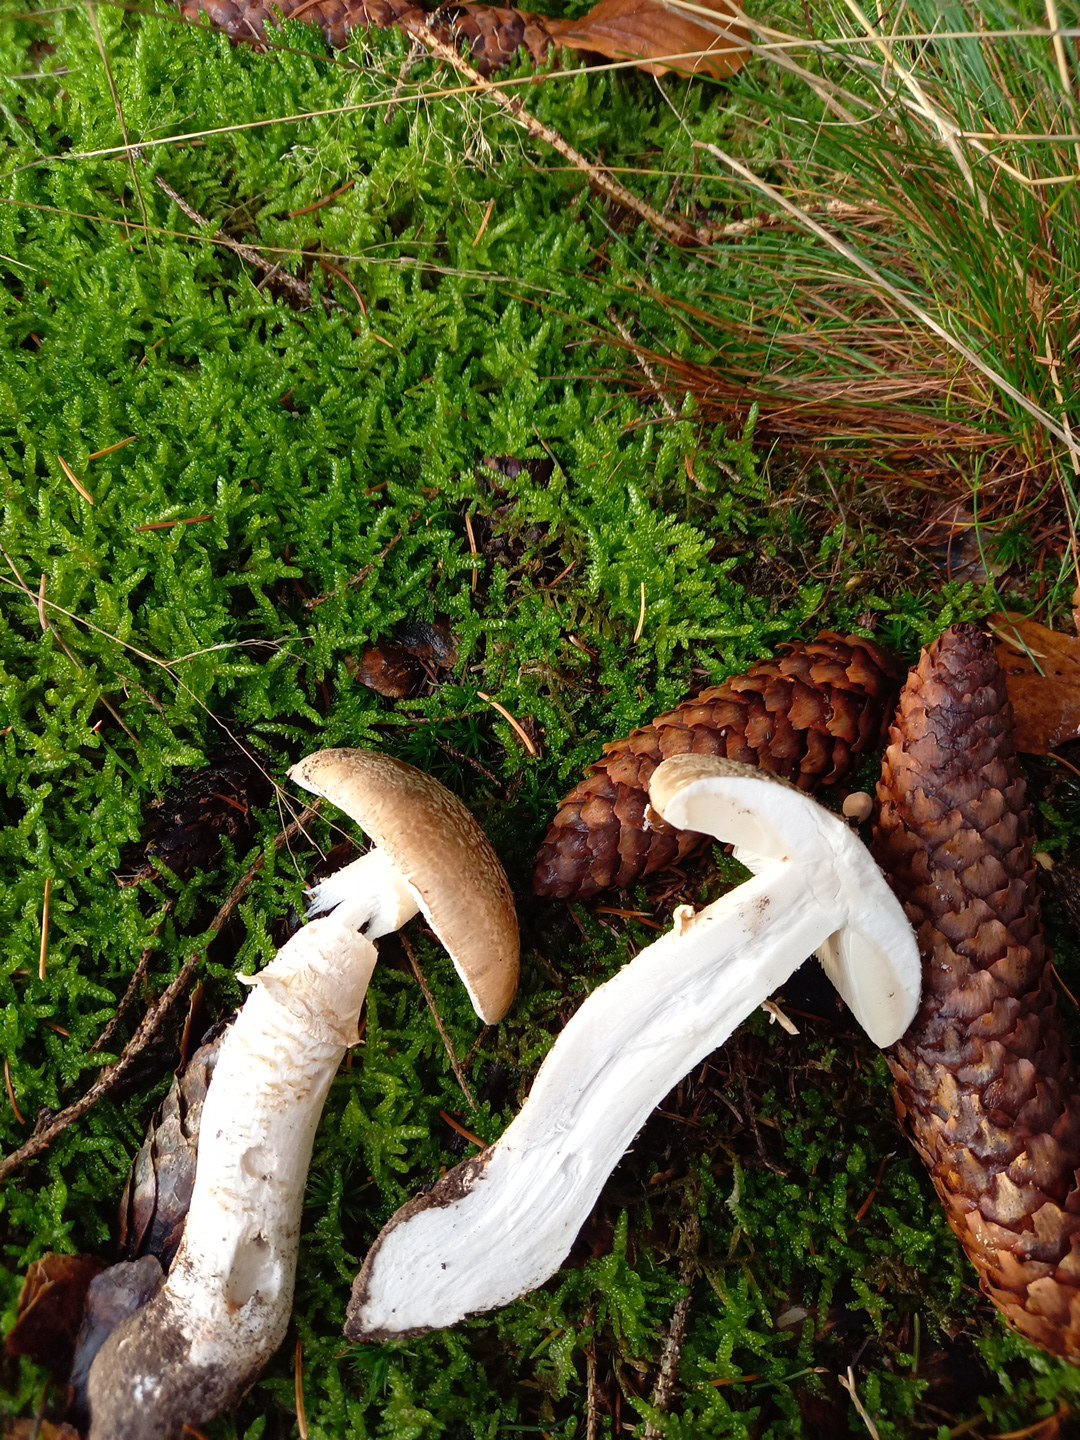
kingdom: Fungi
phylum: Basidiomycota
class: Agaricomycetes
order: Agaricales
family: Amanitaceae
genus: Amanita
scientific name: Amanita
